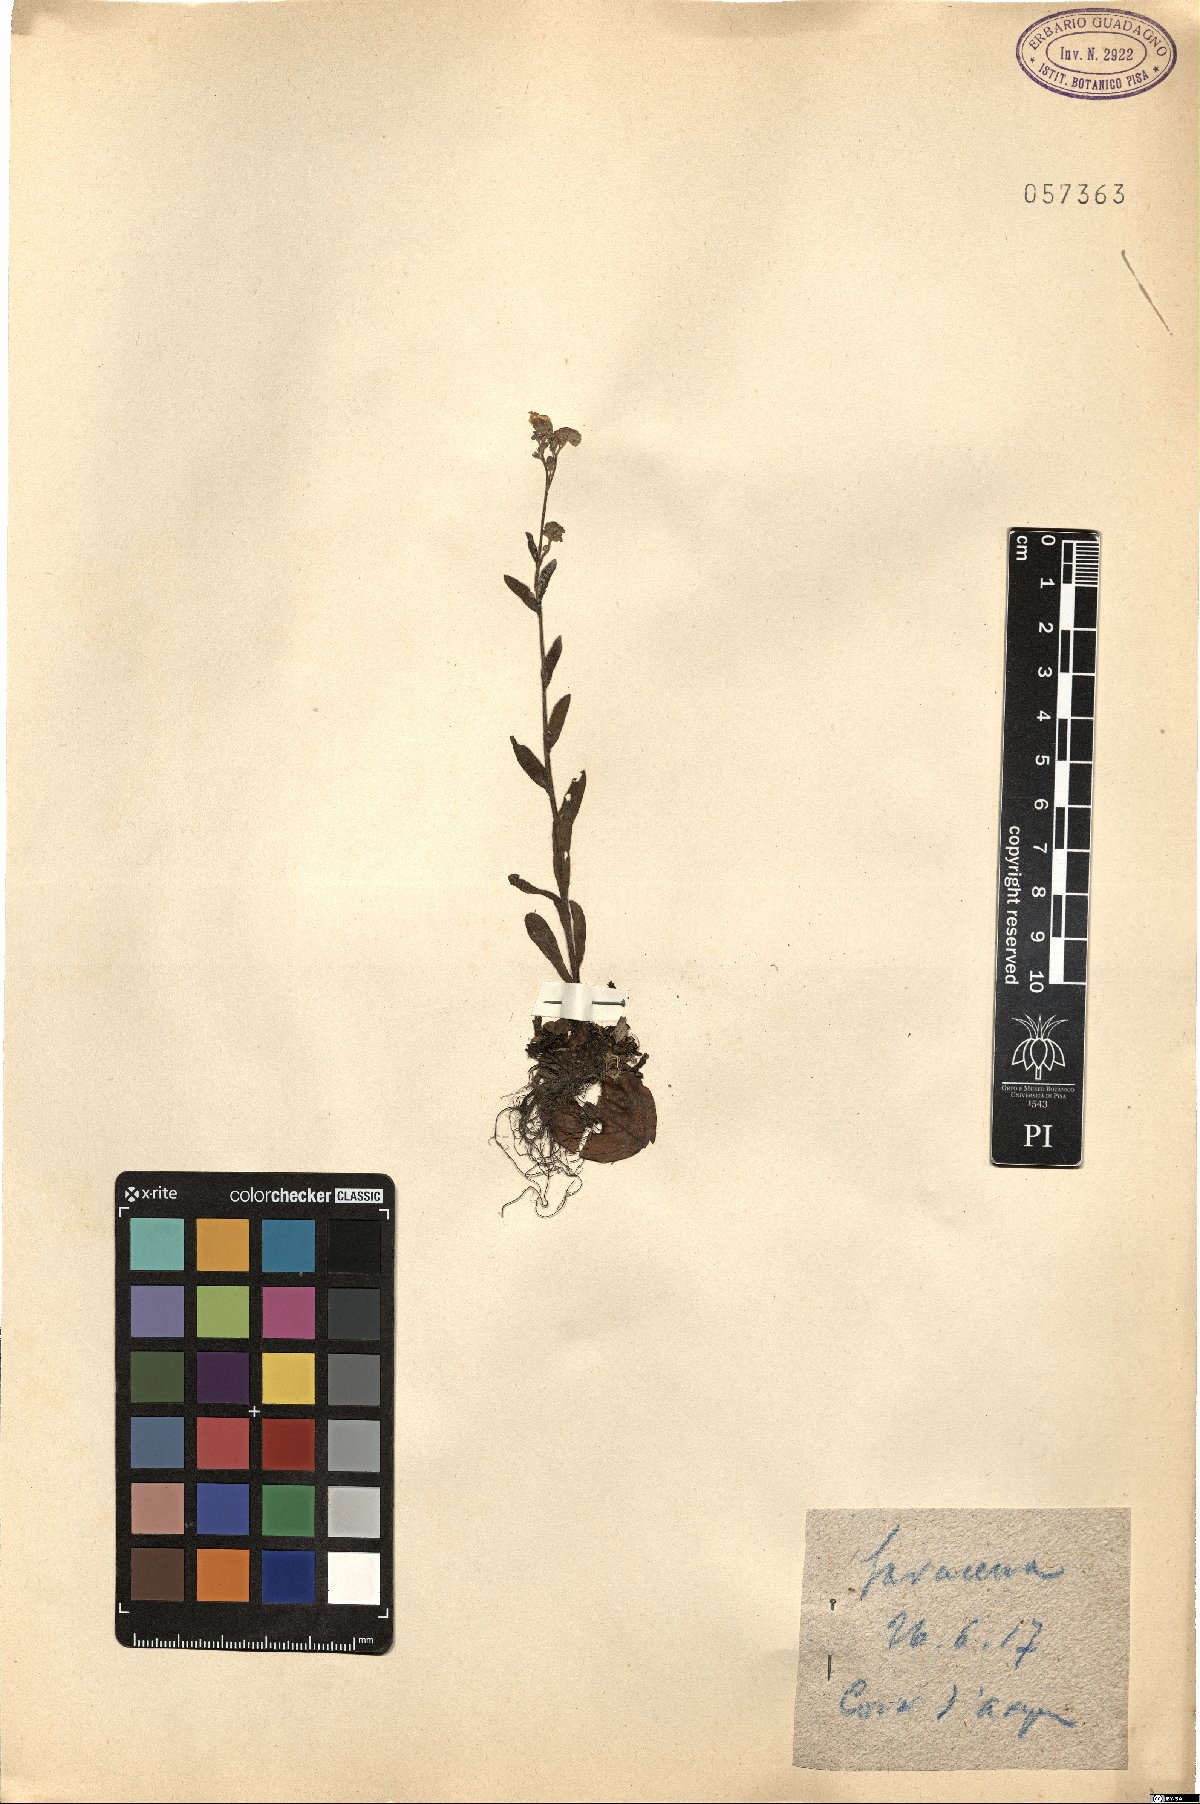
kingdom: Plantae
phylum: Tracheophyta
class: Magnoliopsida
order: Boraginales
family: Boraginaceae
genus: Myosotis
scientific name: Myosotis
